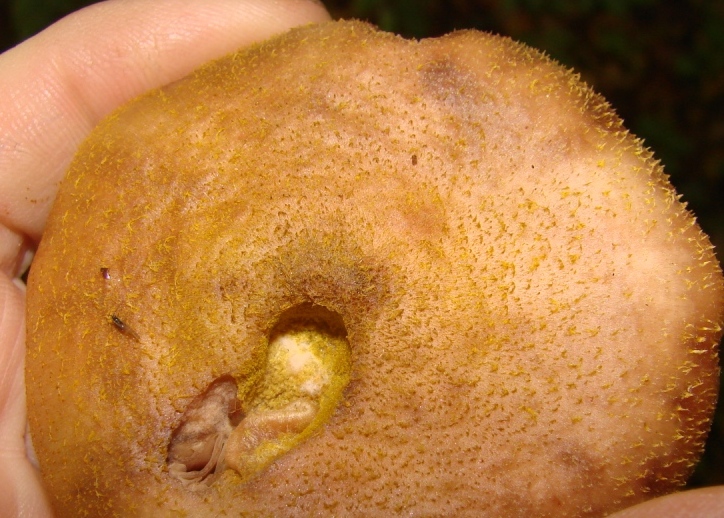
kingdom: Fungi
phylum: Basidiomycota
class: Agaricomycetes
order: Agaricales
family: Physalacriaceae
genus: Armillaria
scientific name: Armillaria lutea
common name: køllestokket honningsvamp
